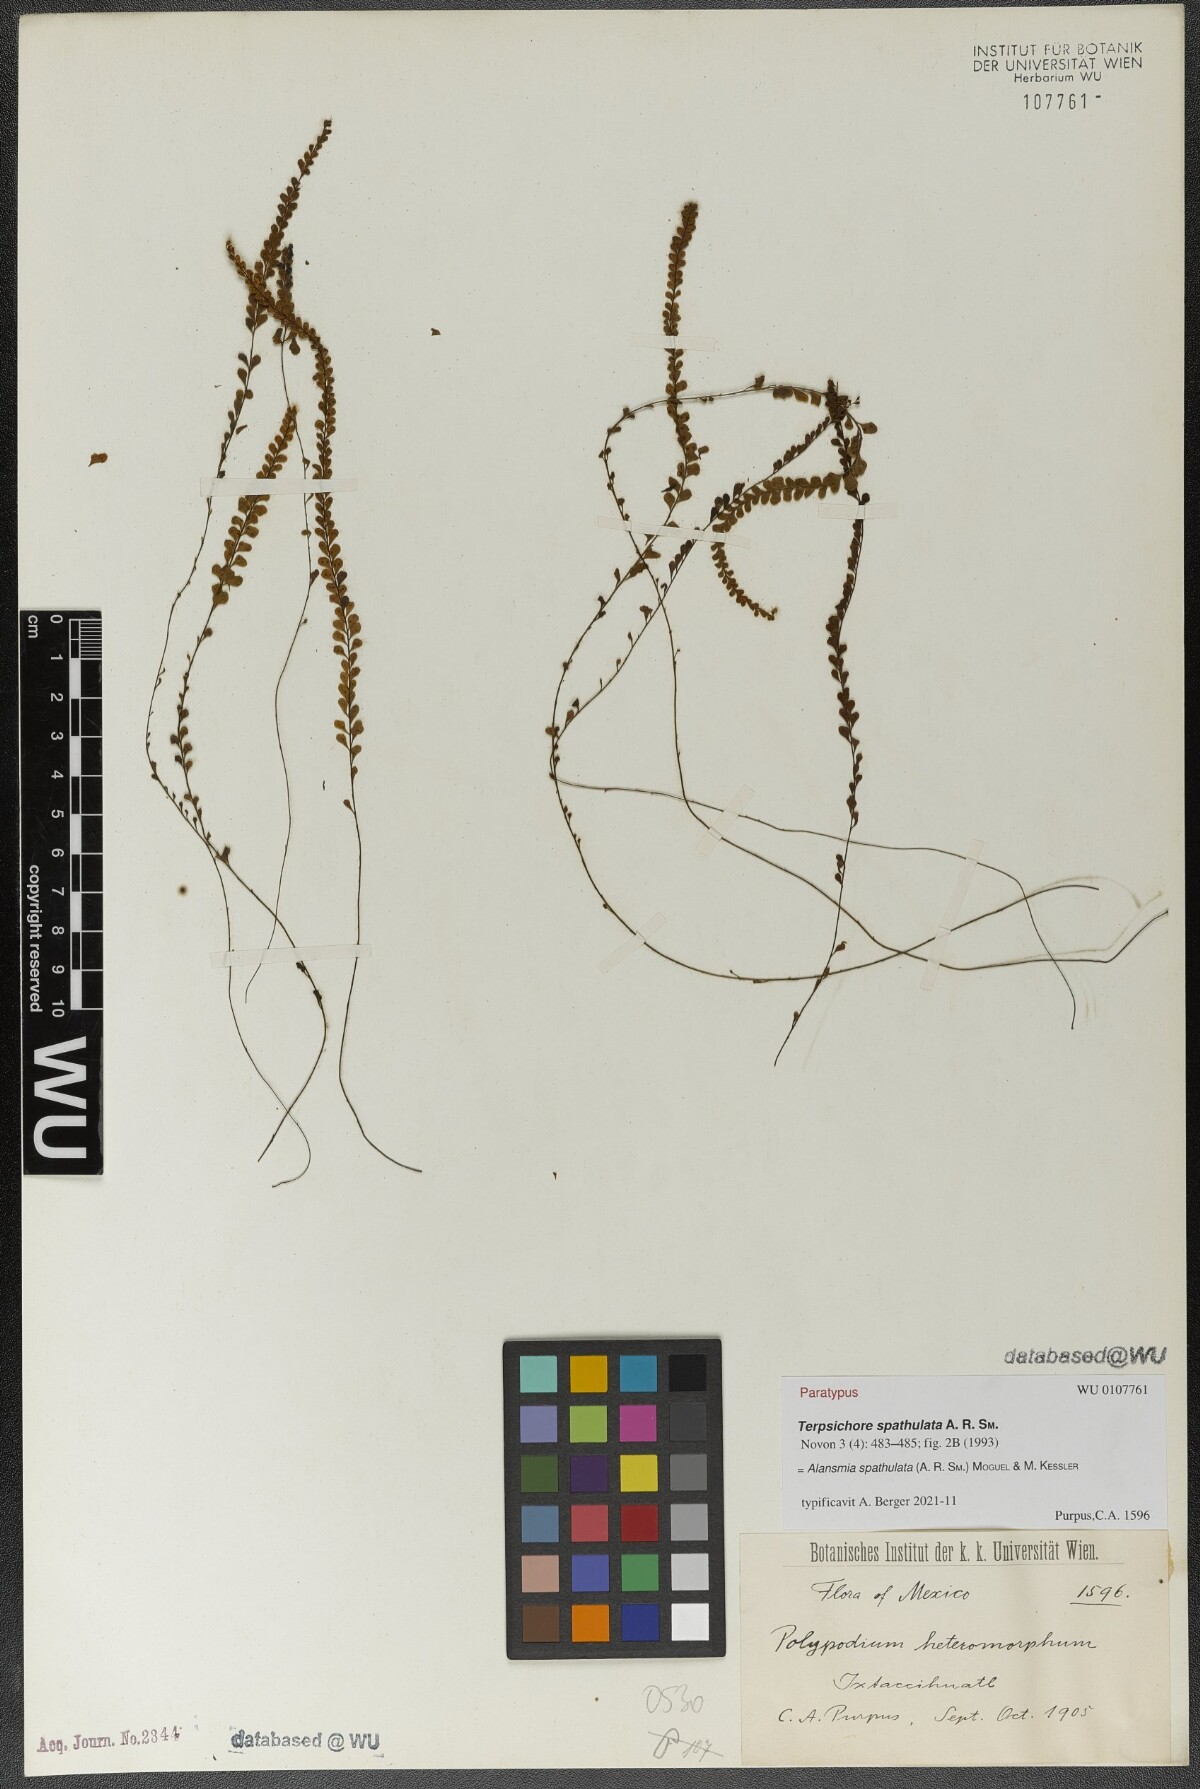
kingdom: Plantae
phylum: Tracheophyta
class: Polypodiopsida
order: Polypodiales
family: Polypodiaceae
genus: Alansmia
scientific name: Alansmia spathulata
